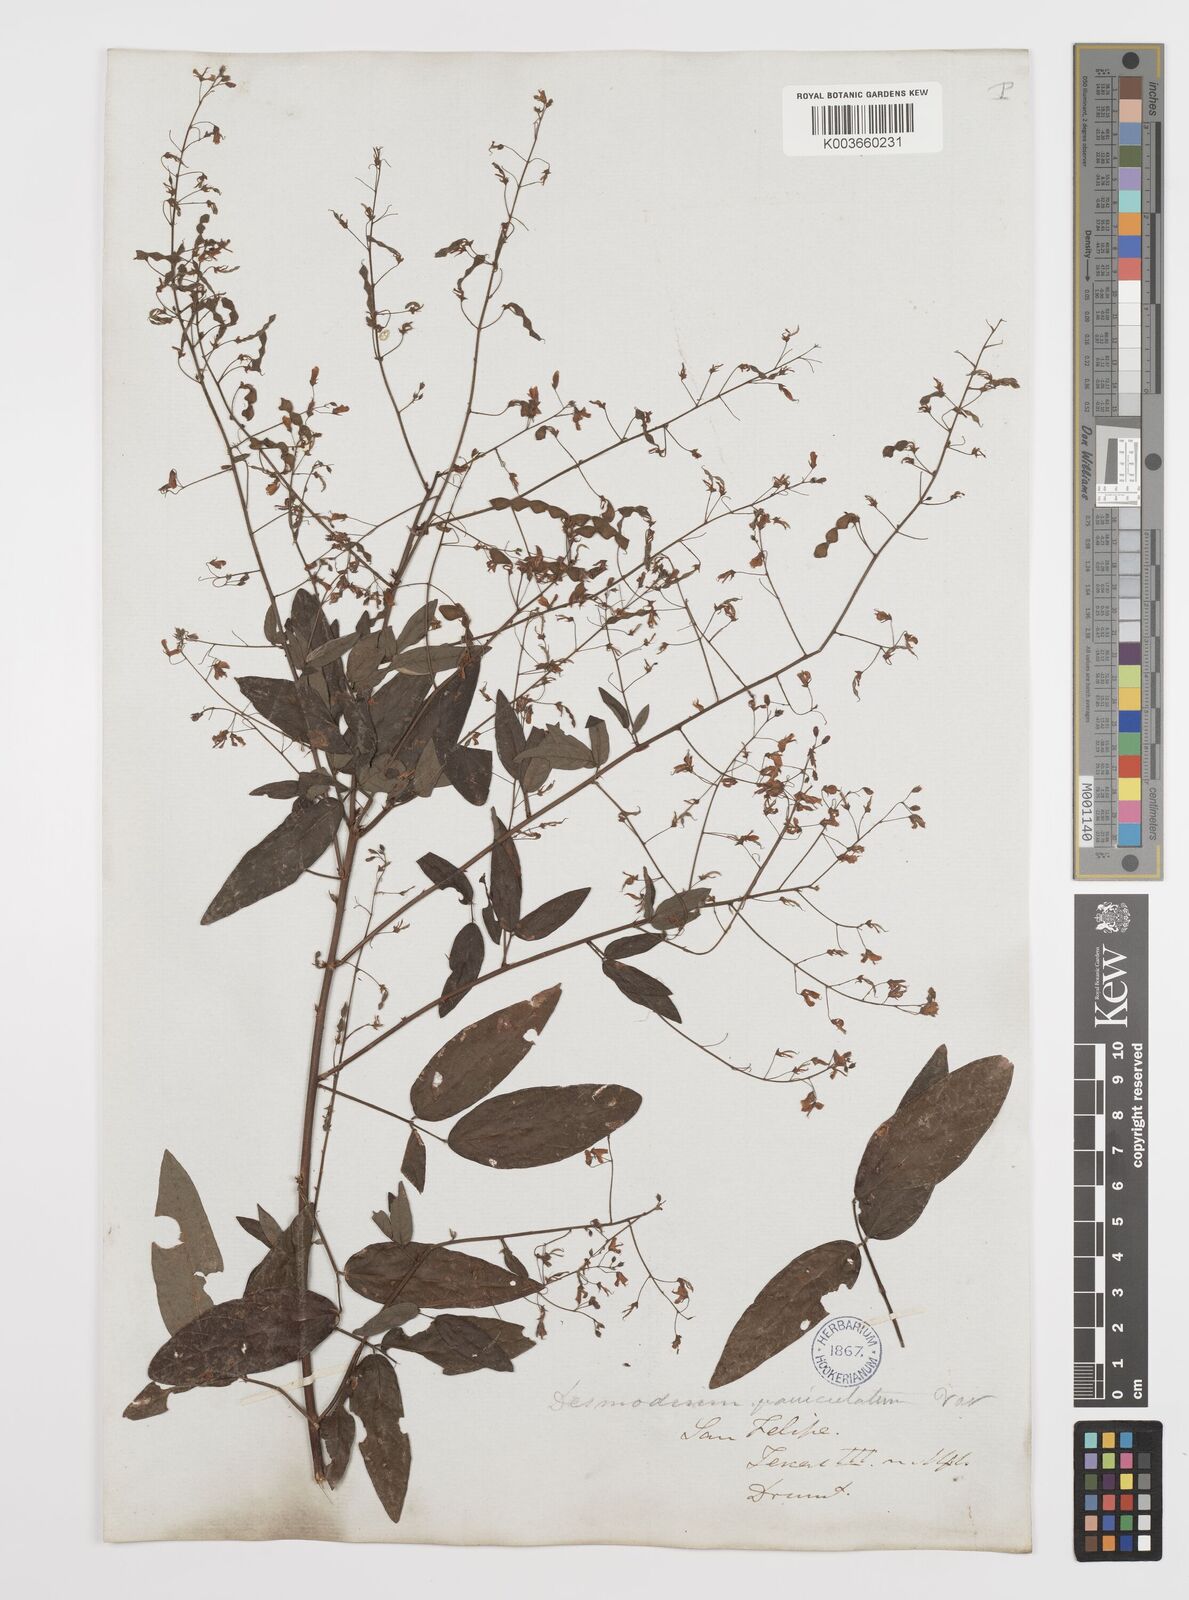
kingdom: Plantae
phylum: Tracheophyta
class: Magnoliopsida
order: Fabales
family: Fabaceae
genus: Desmodium
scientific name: Desmodium paniculatum
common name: Panicled tick-clover
